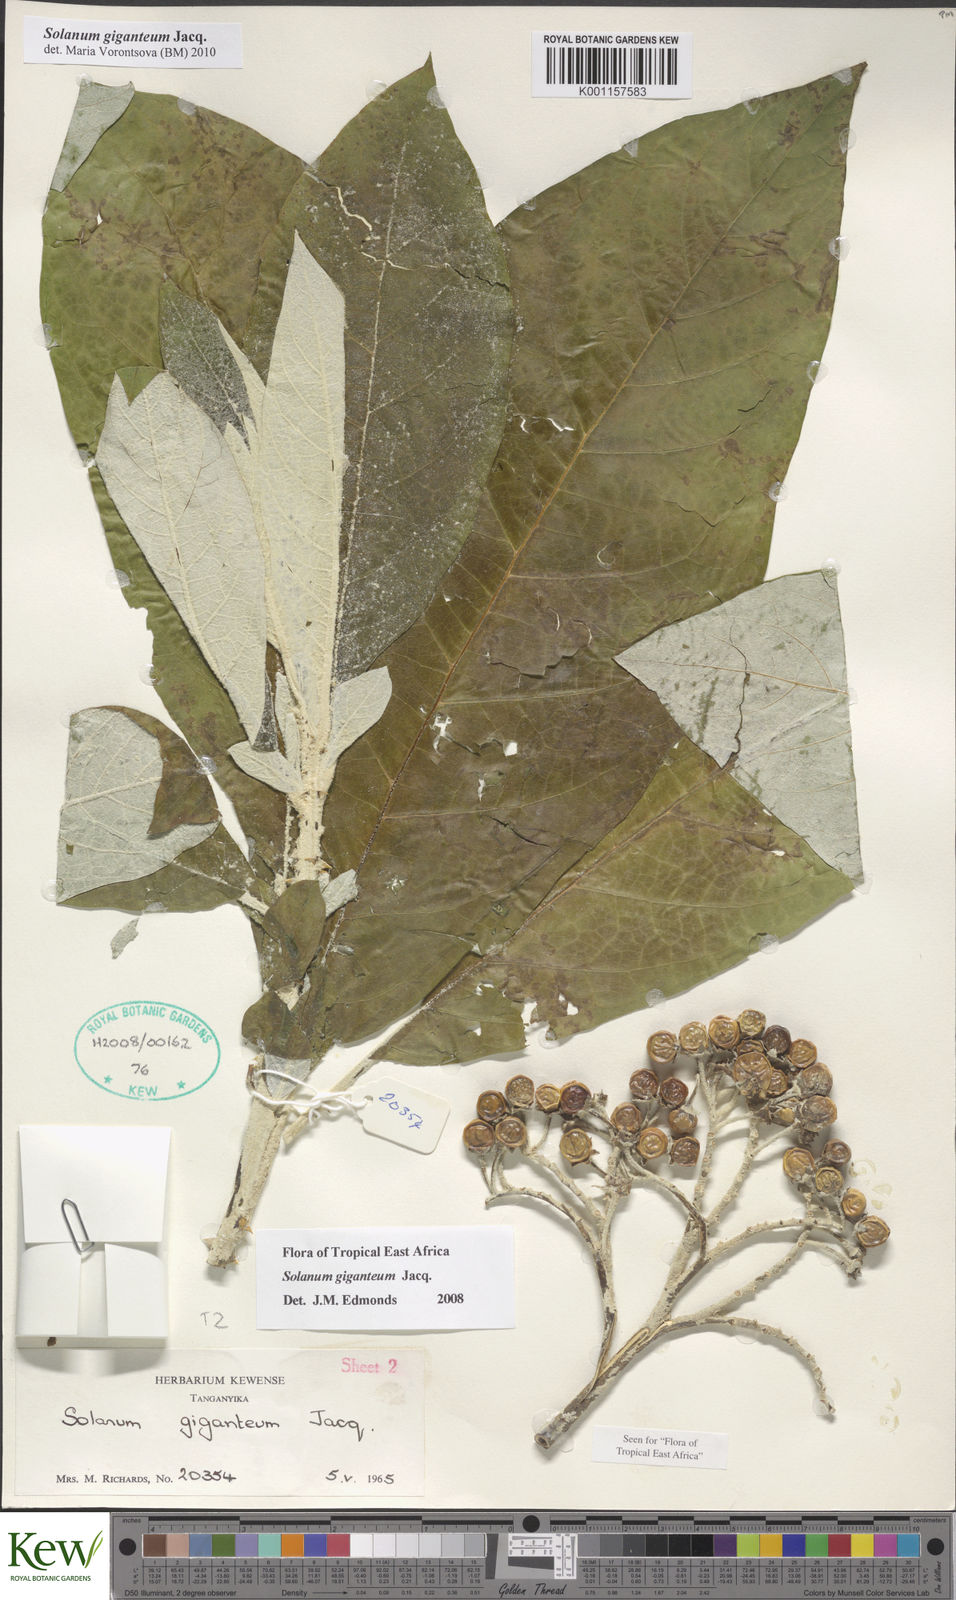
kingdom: Plantae
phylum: Tracheophyta
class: Magnoliopsida
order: Solanales
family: Solanaceae
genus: Solanum
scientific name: Solanum giganteum
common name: Healing-leaf-tree
